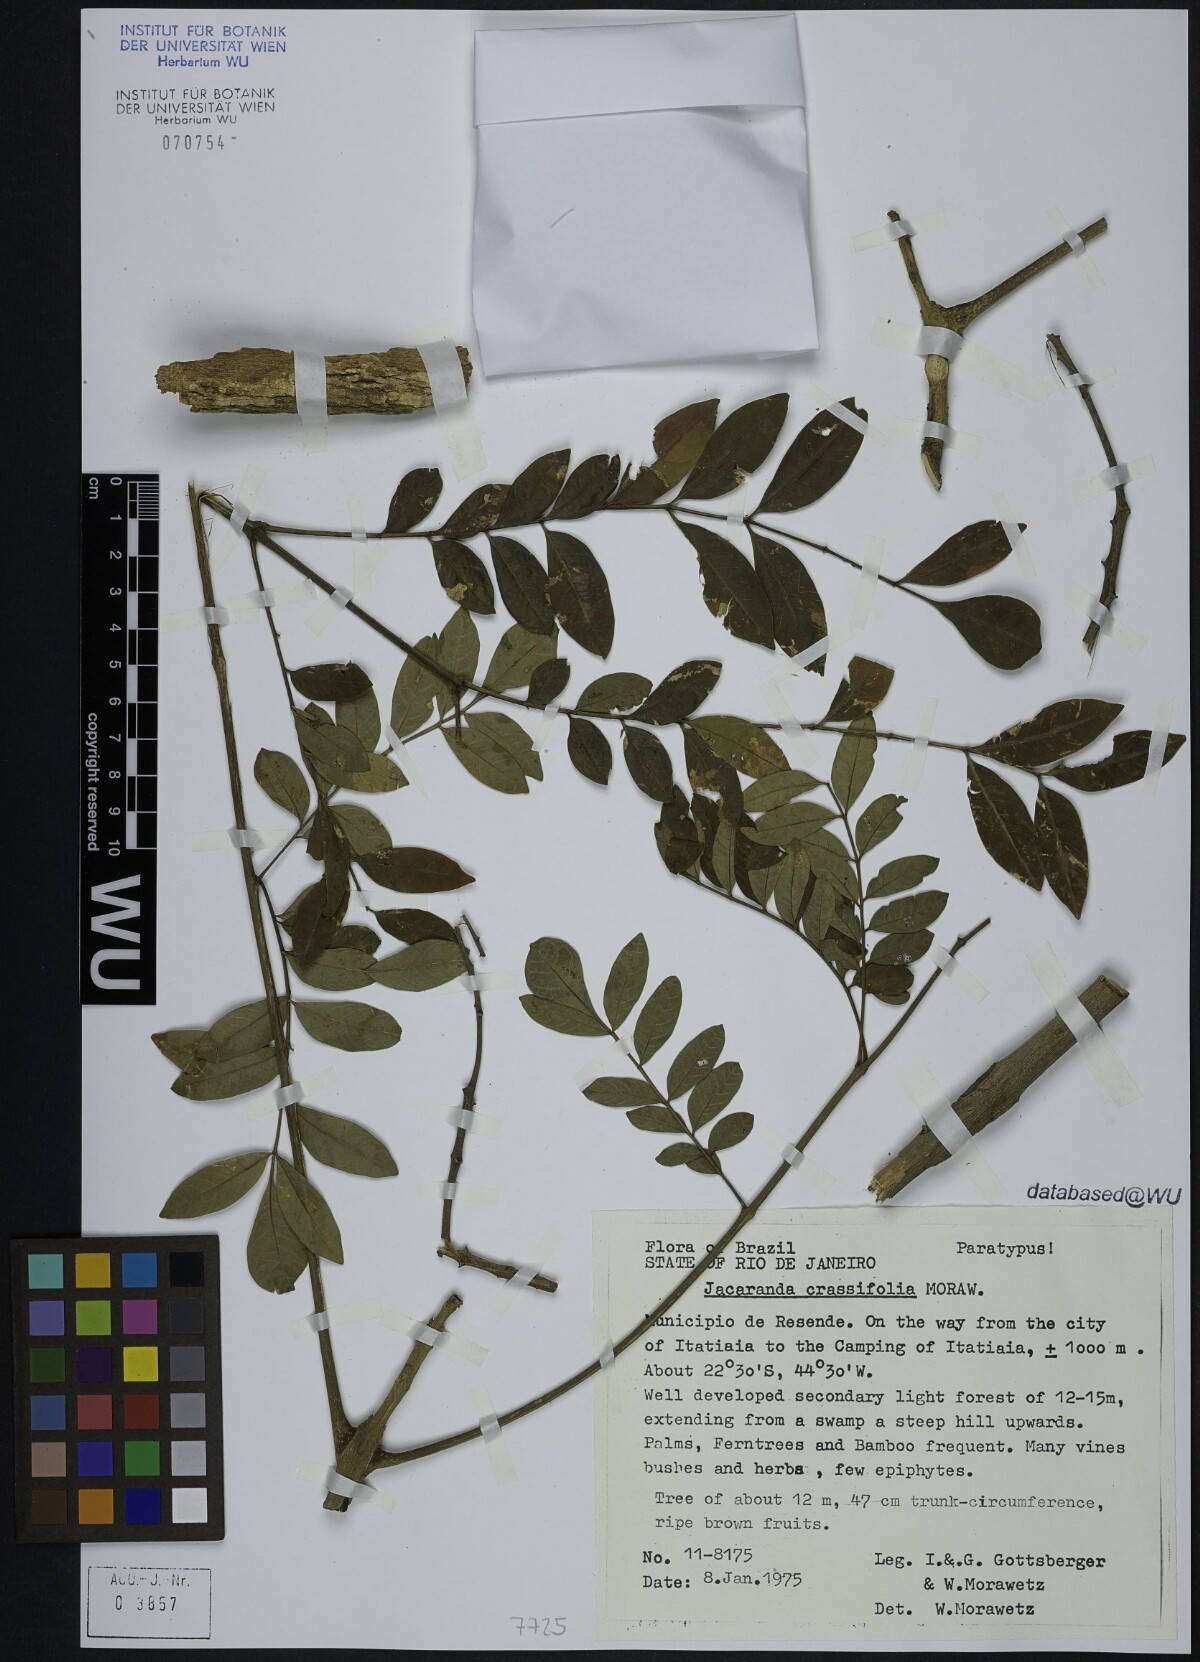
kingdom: Plantae
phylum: Tracheophyta
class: Magnoliopsida
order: Lamiales
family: Bignoniaceae
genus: Jacaranda
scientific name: Jacaranda crassifolia
